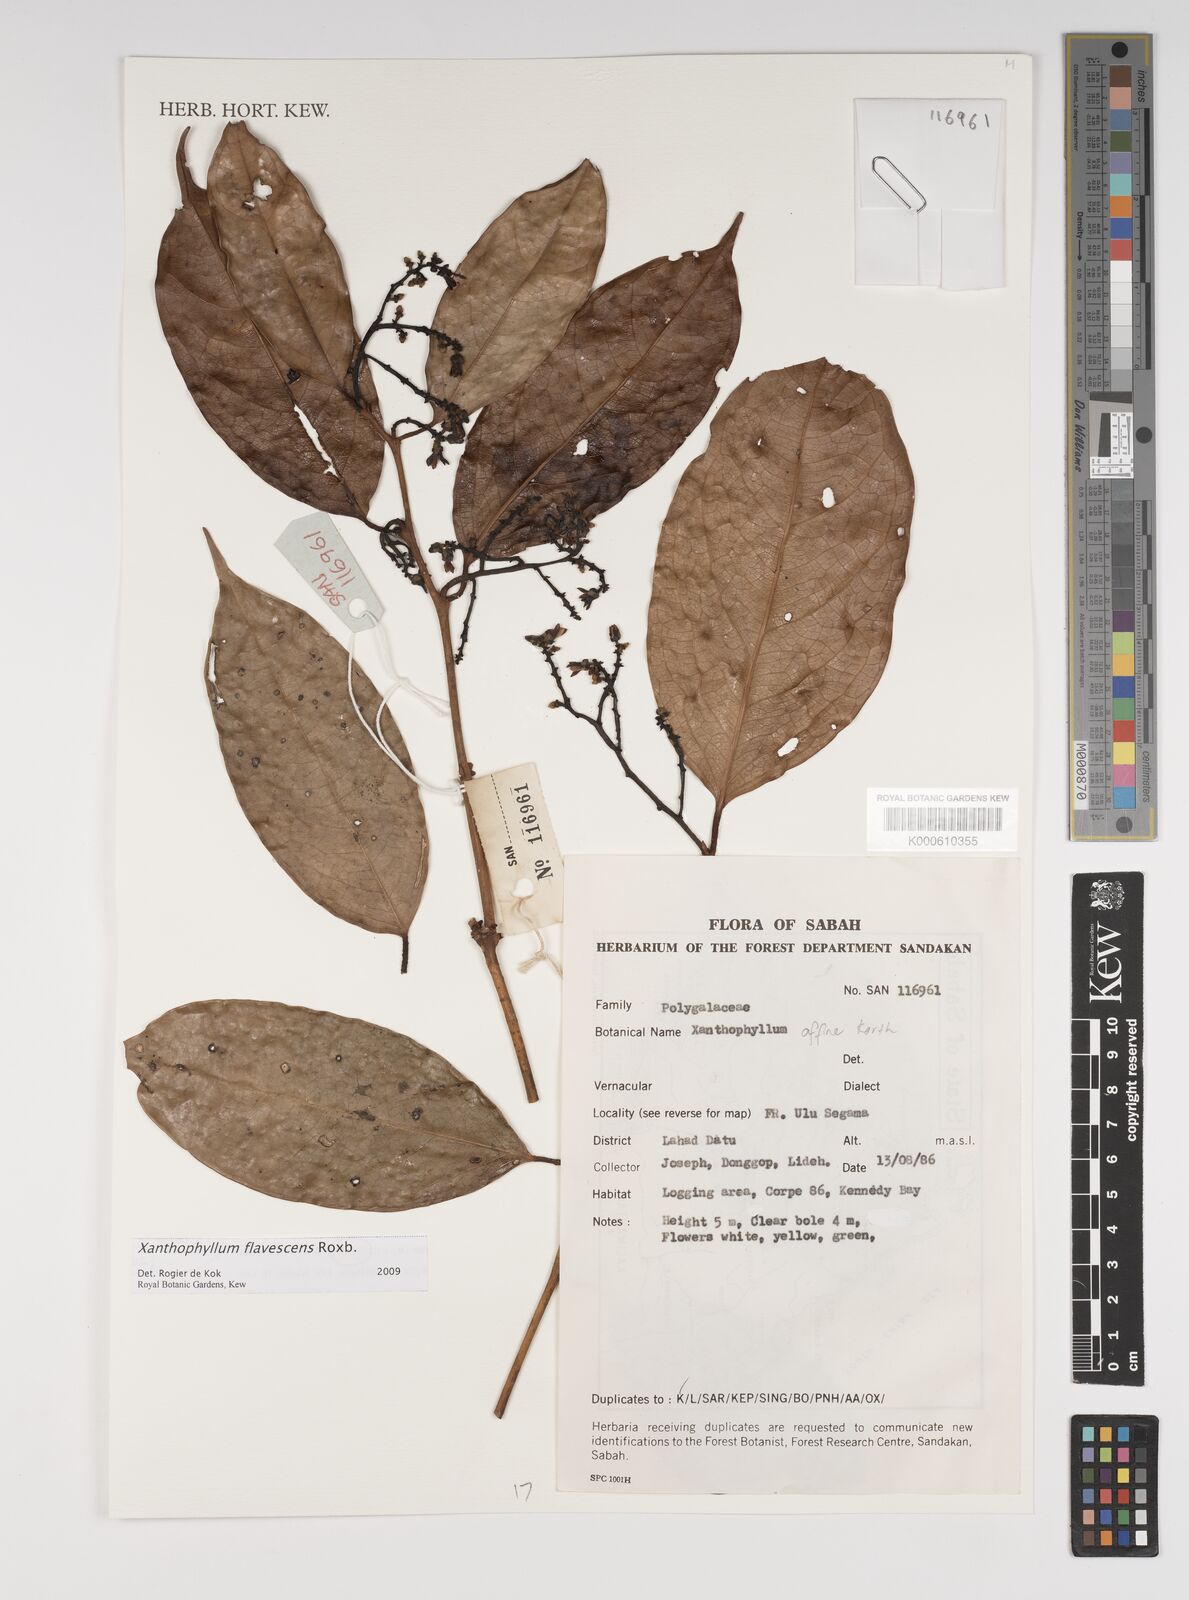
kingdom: Plantae
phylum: Tracheophyta
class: Magnoliopsida
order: Fabales
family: Polygalaceae
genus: Xanthophyllum
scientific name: Xanthophyllum flavescens
